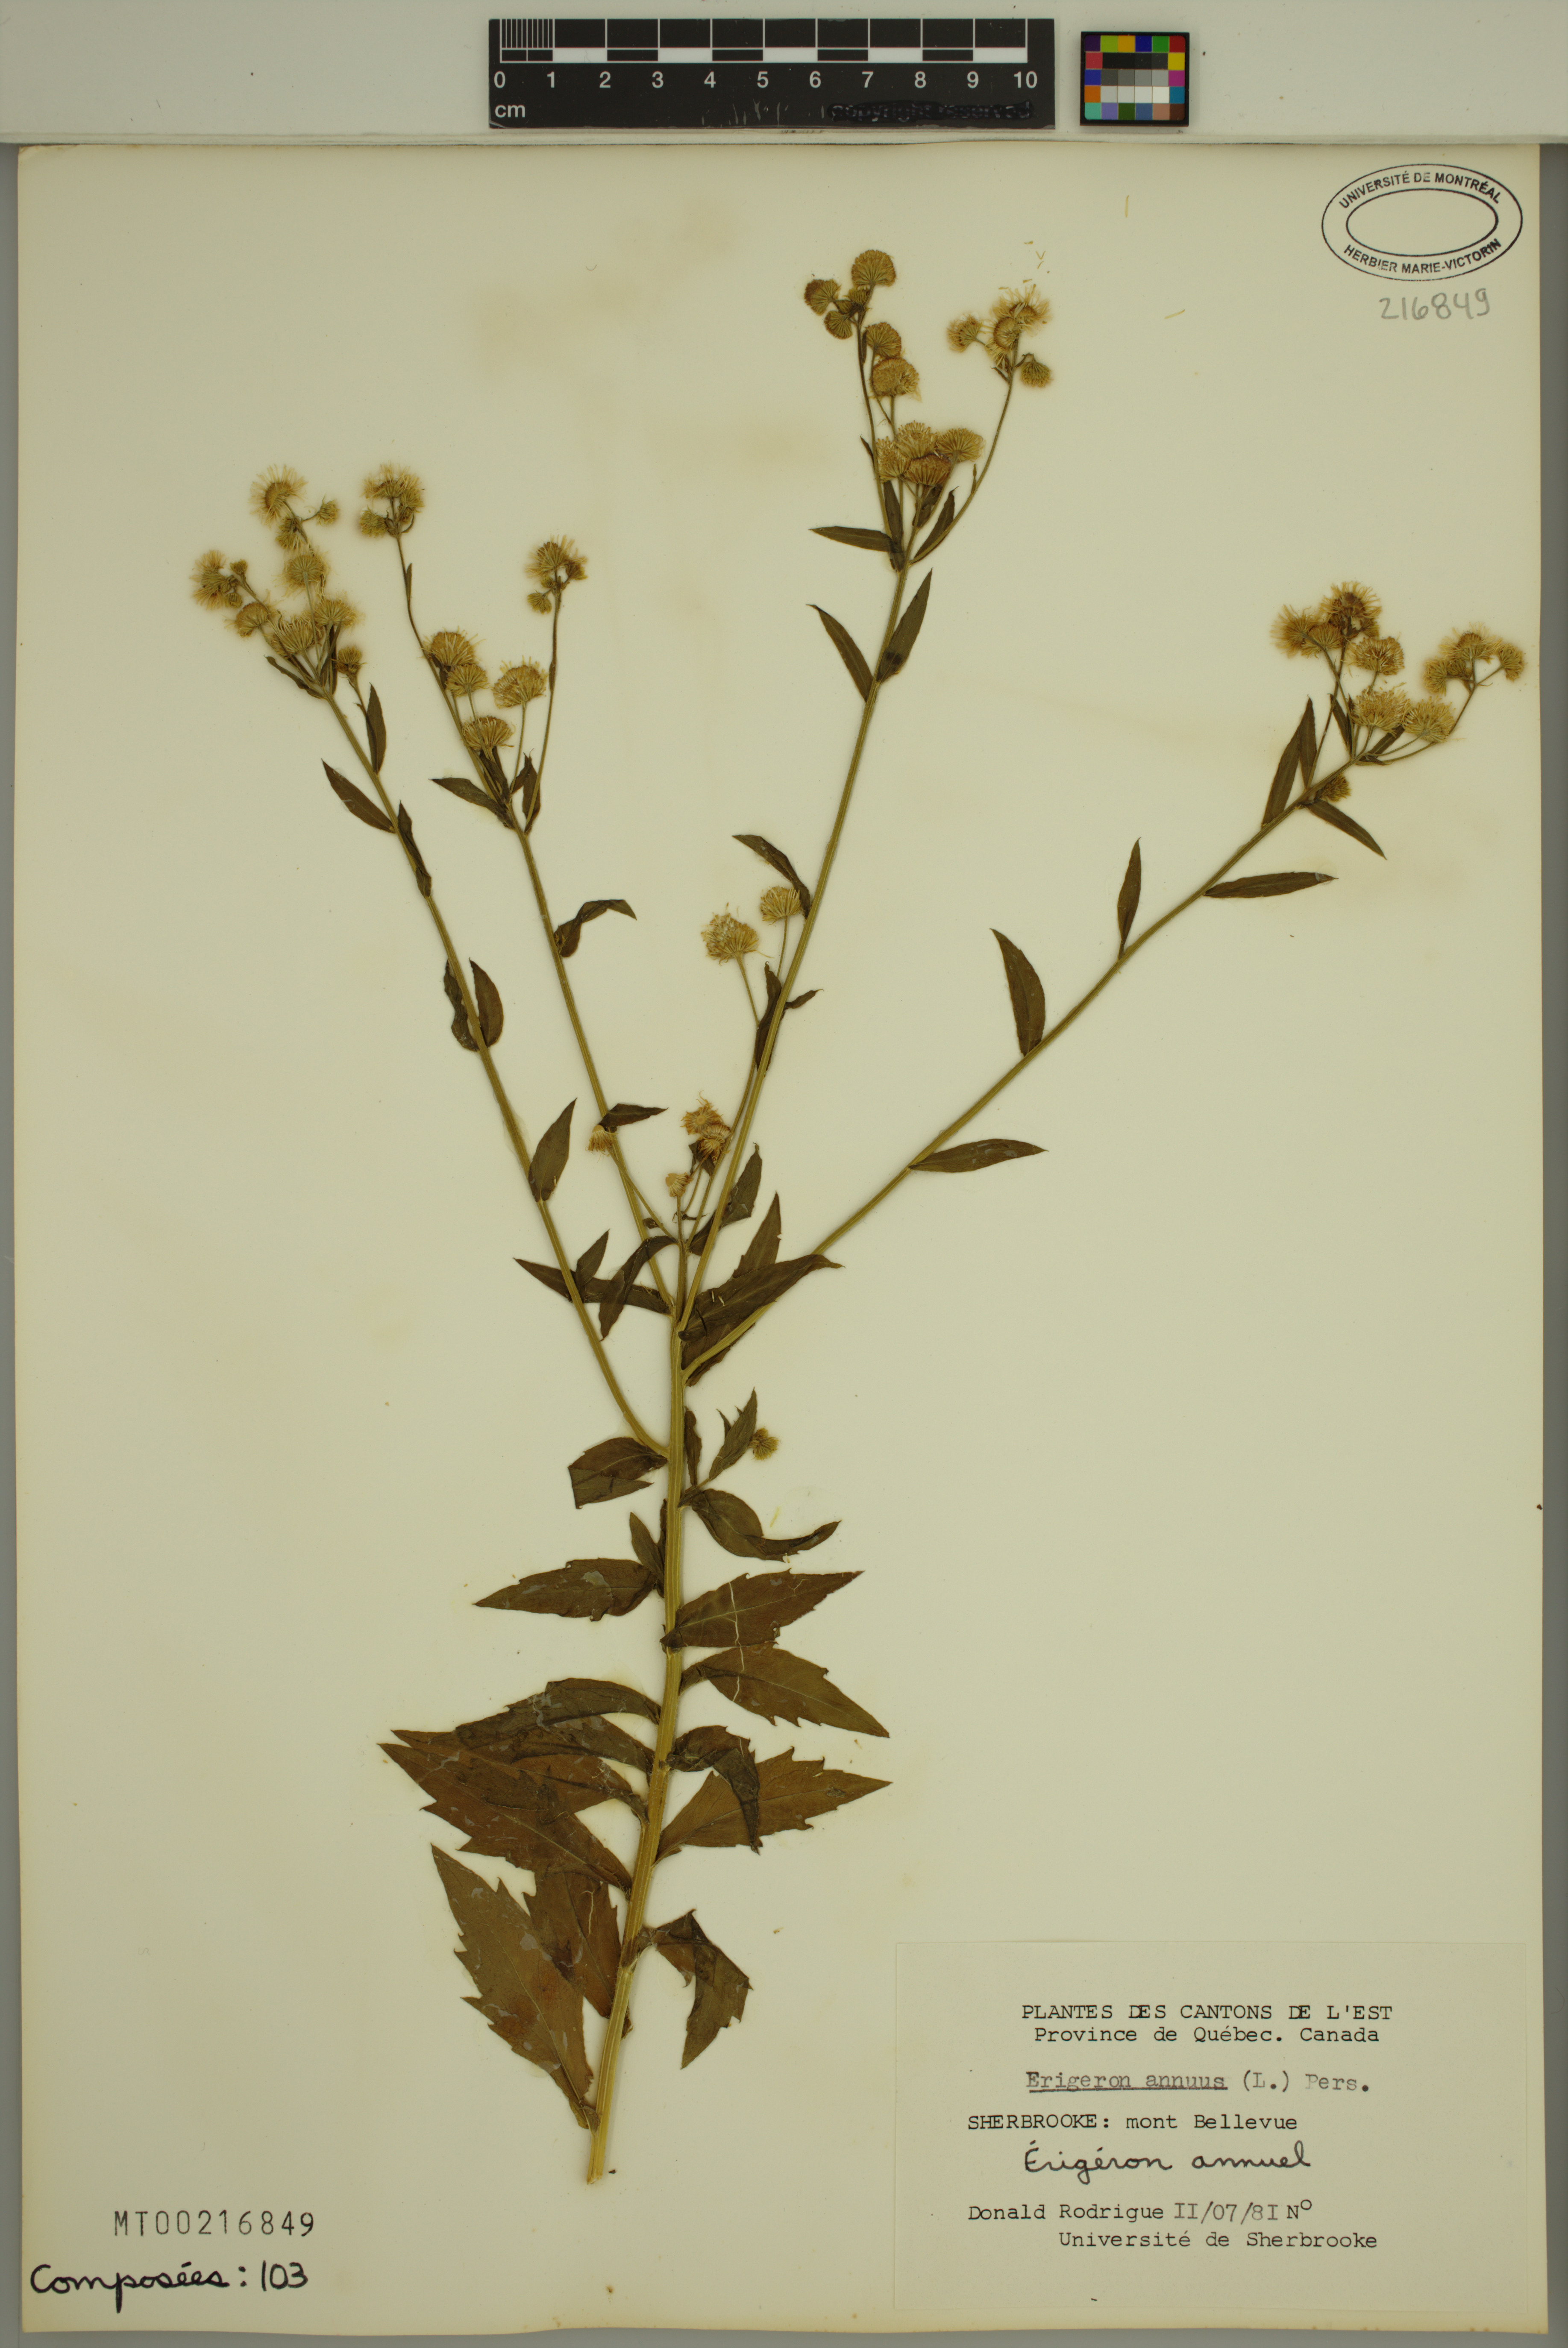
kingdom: Plantae
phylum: Tracheophyta
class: Magnoliopsida
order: Asterales
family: Asteraceae
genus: Erigeron
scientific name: Erigeron annuus
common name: Tall fleabane
